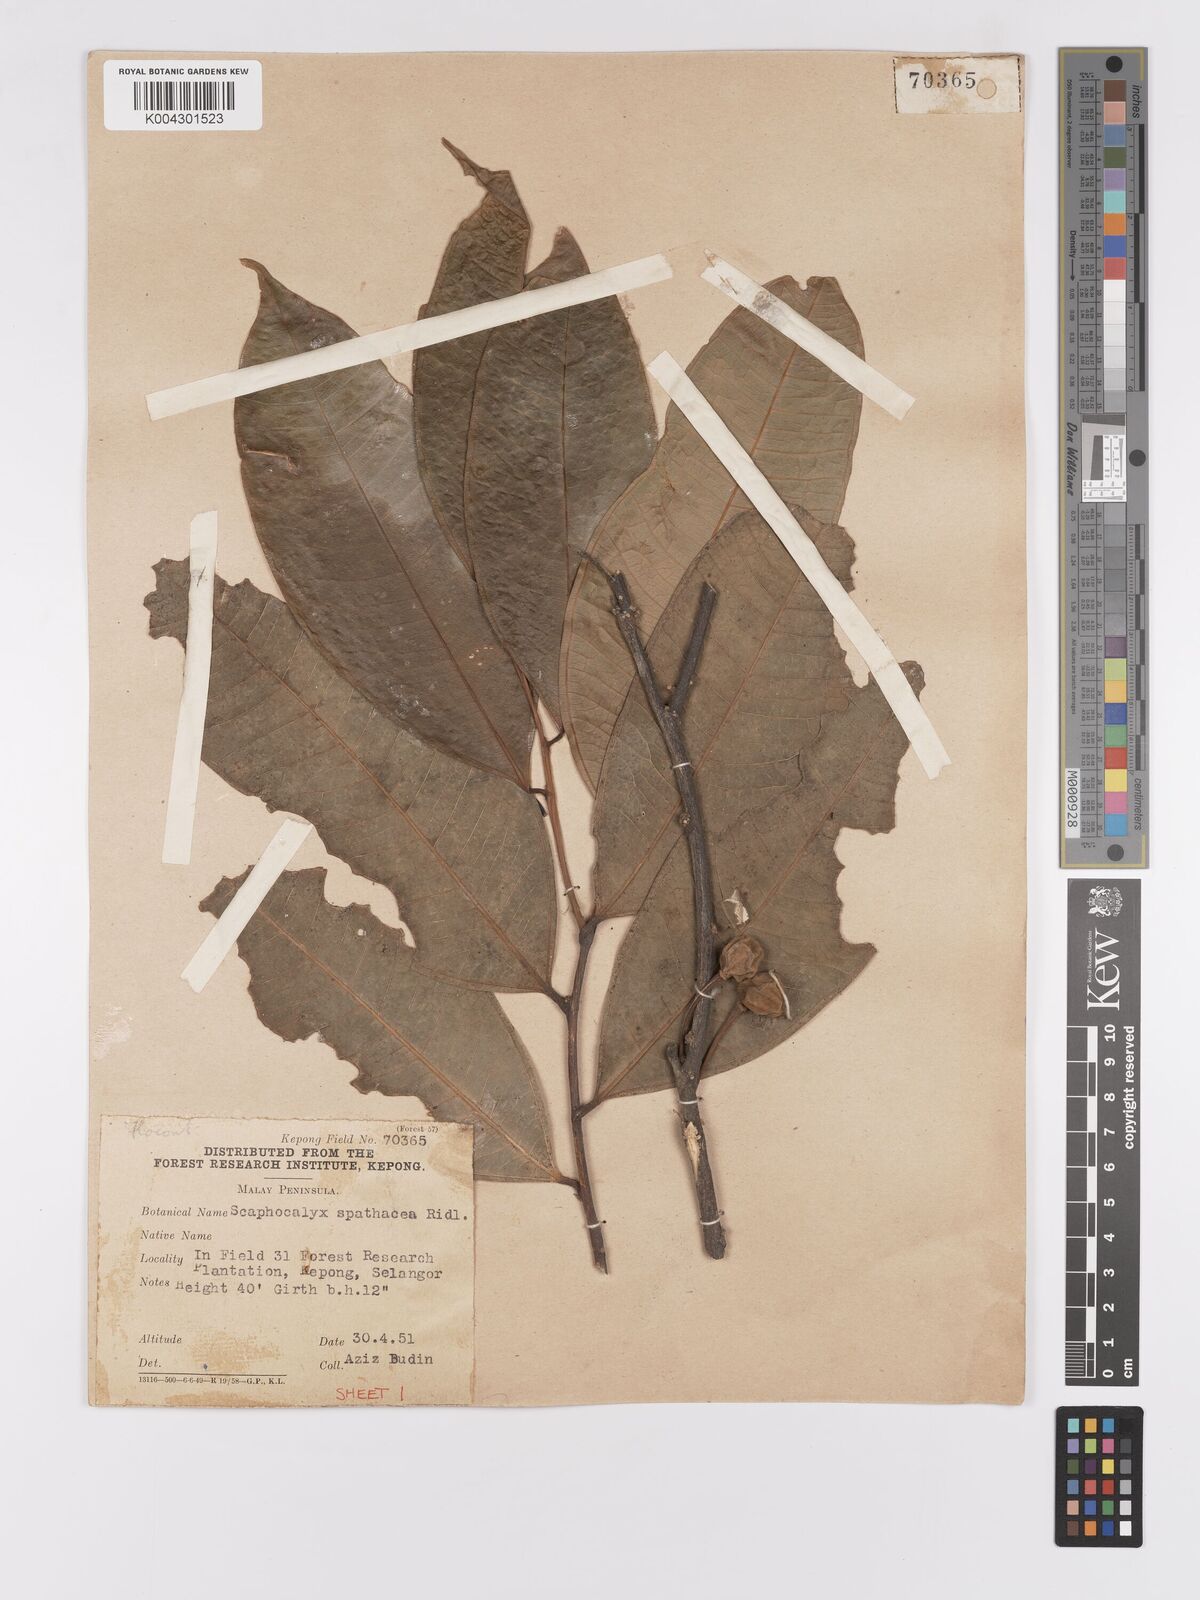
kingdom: Plantae
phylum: Tracheophyta
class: Magnoliopsida
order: Malpighiales
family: Achariaceae
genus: Scaphocalyx
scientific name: Scaphocalyx spathacea
